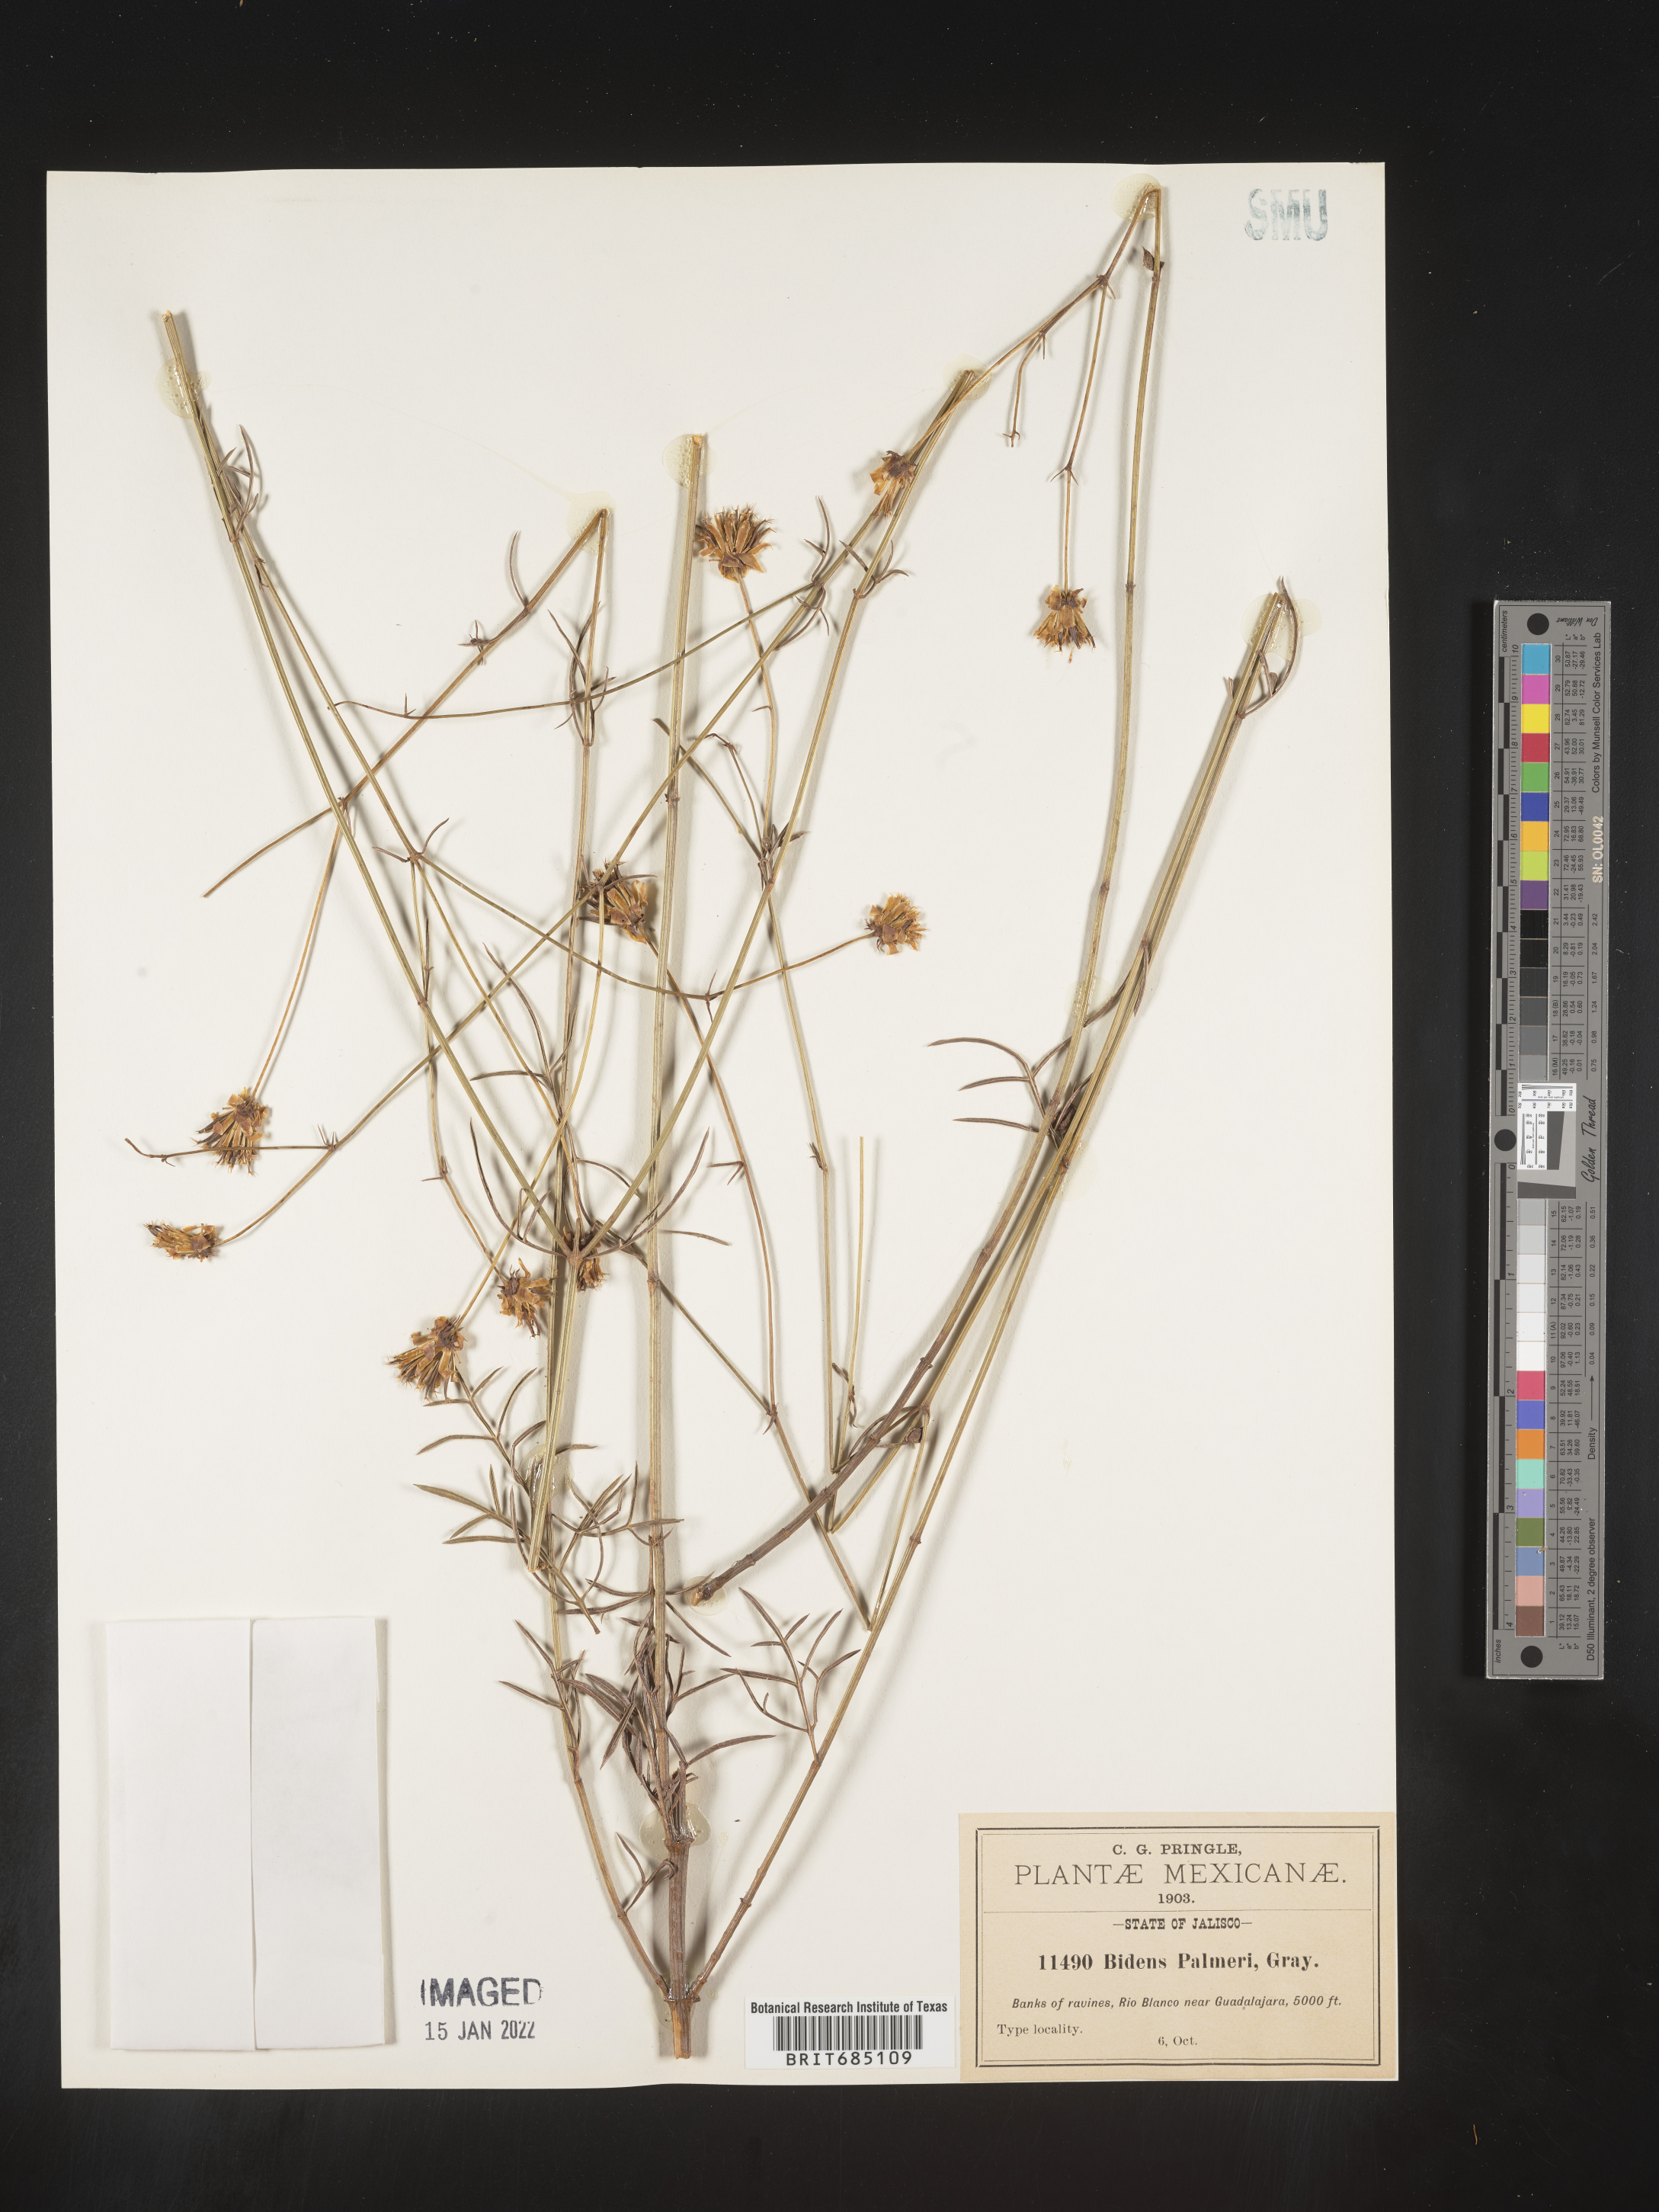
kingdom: Plantae
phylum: Tracheophyta
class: Magnoliopsida
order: Asterales
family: Asteraceae
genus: Bidens
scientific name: Bidens
